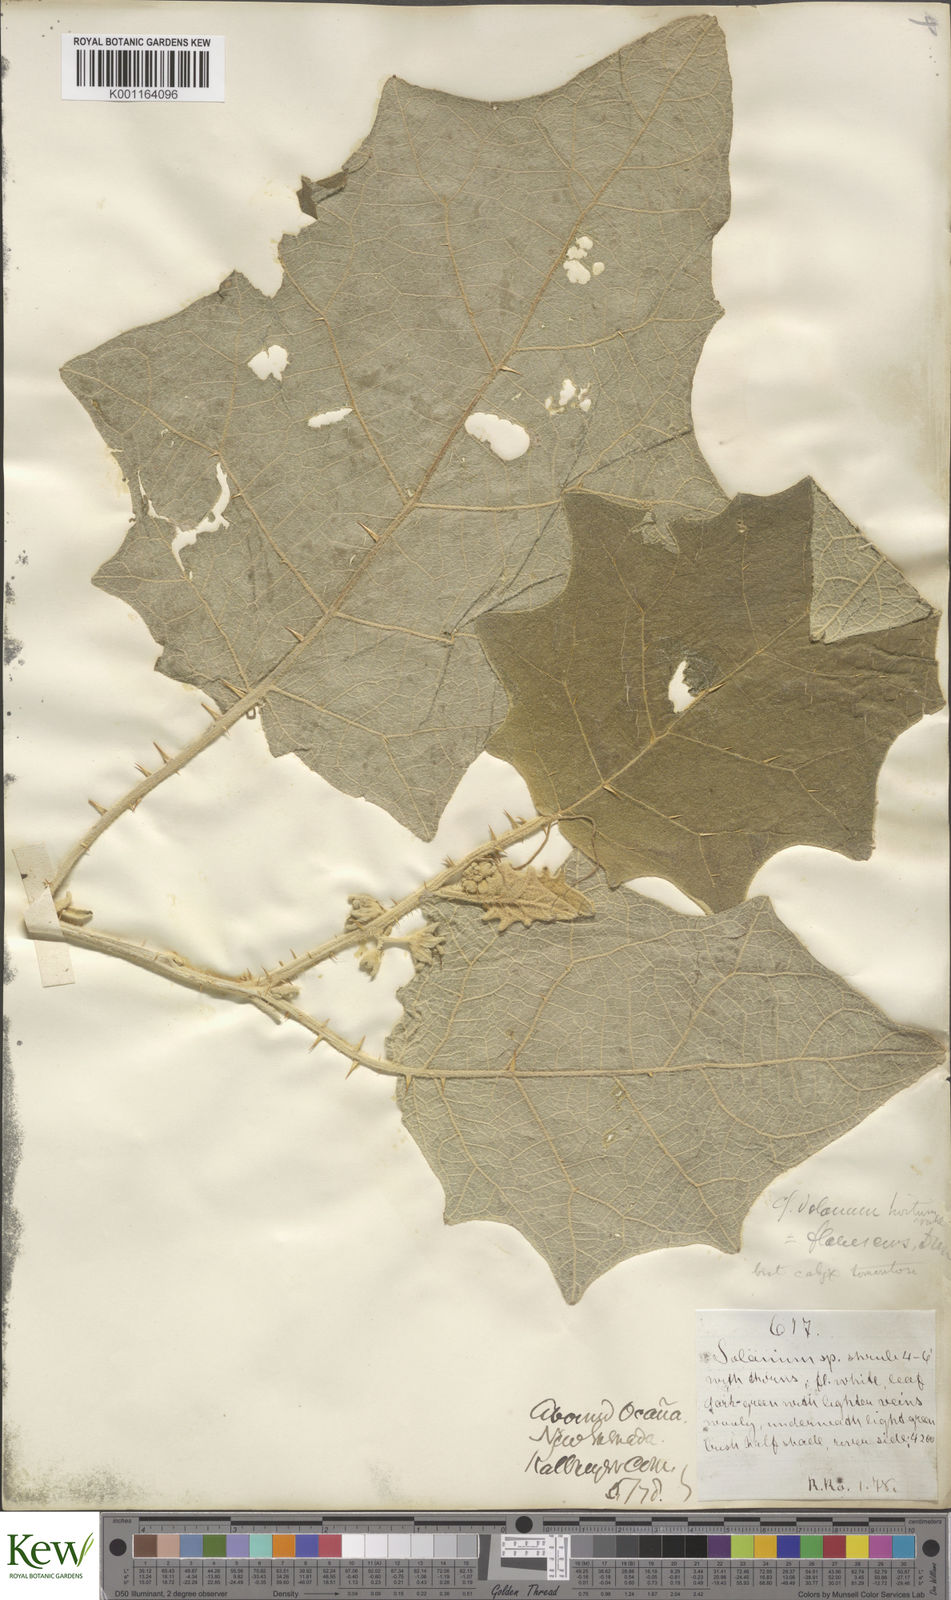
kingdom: Plantae
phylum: Tracheophyta
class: Magnoliopsida
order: Solanales
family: Solanaceae
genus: Solanum
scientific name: Solanum hirtum
